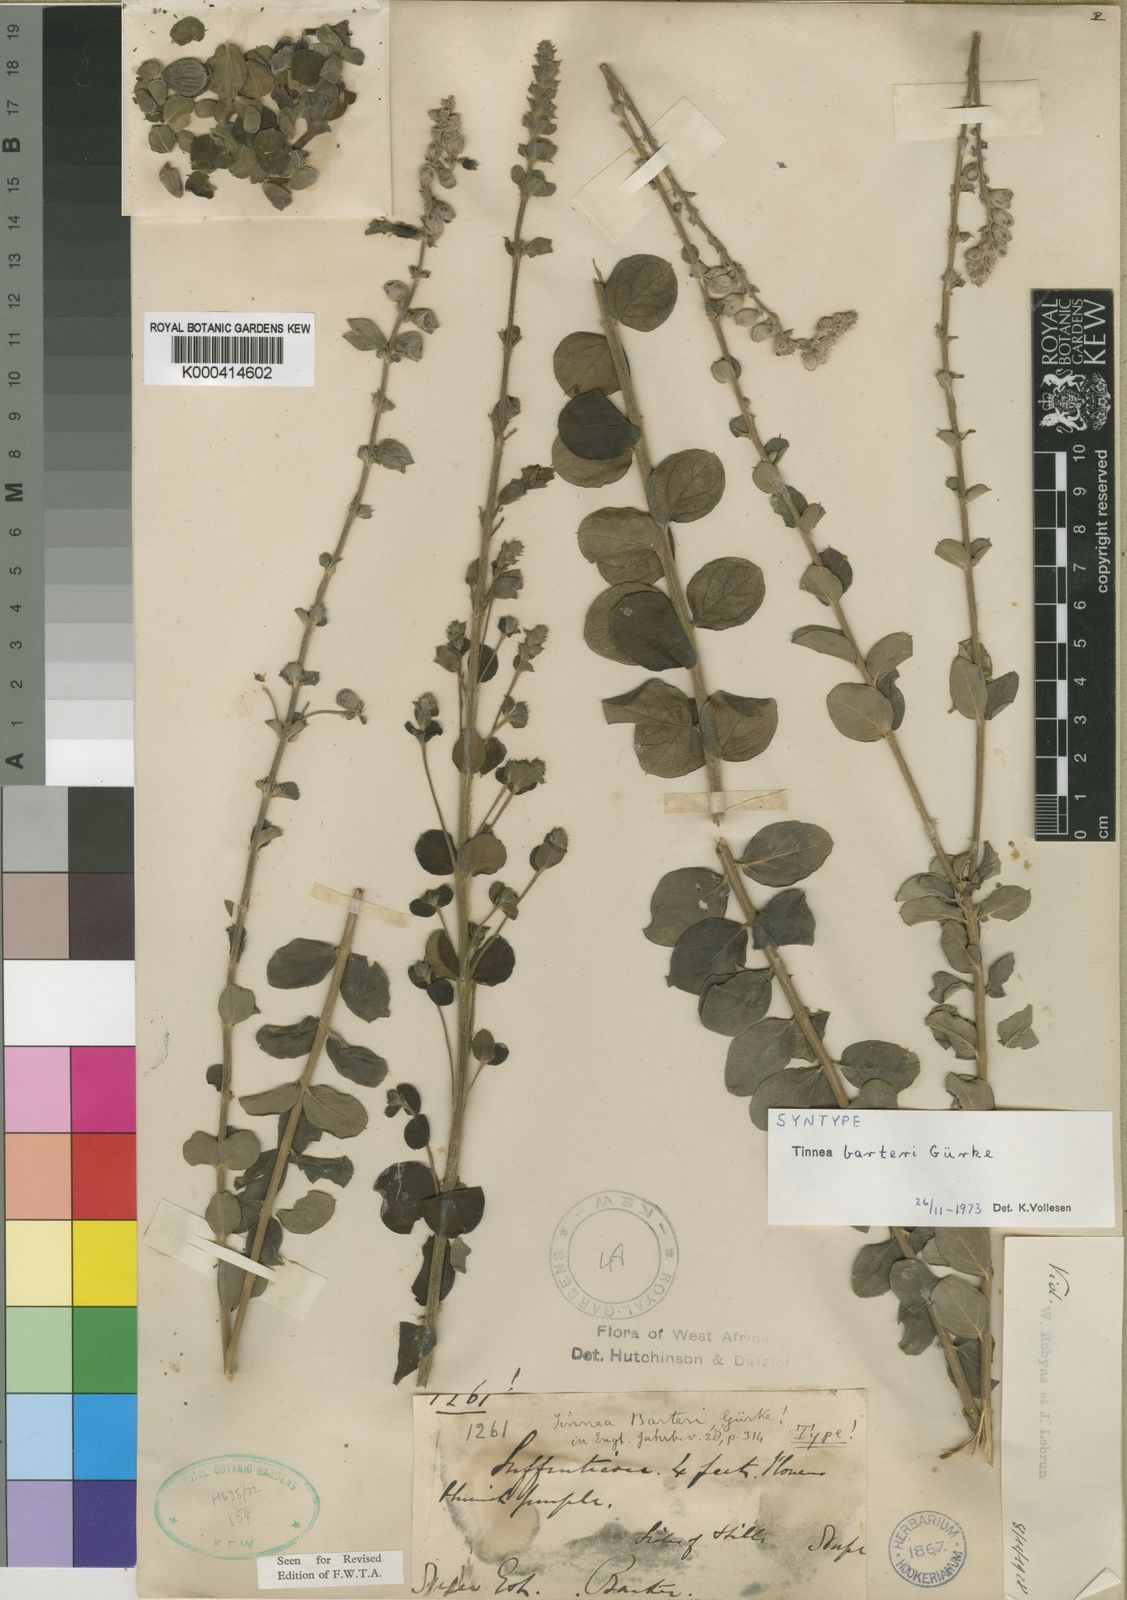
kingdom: Plantae
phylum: Tracheophyta
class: Magnoliopsida
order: Lamiales
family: Lamiaceae
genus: Tinnea
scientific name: Tinnea
